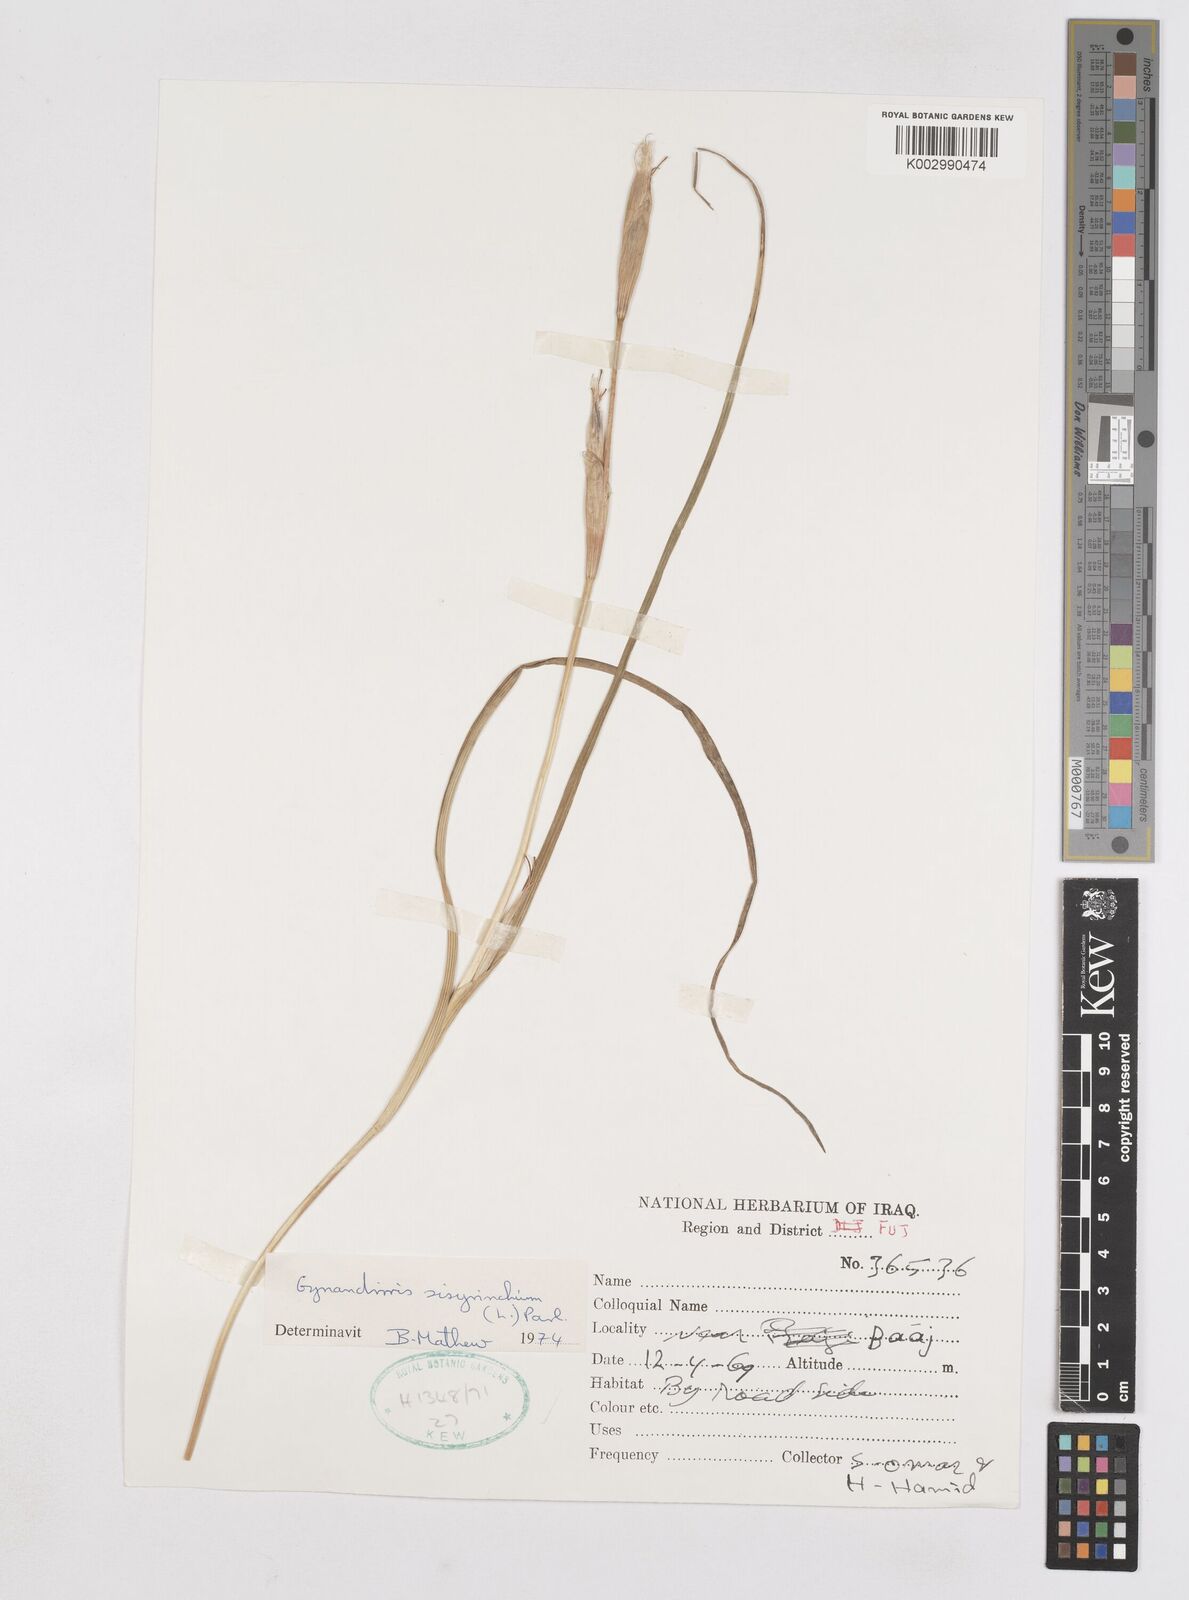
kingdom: Plantae
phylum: Tracheophyta
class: Liliopsida
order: Asparagales
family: Iridaceae
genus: Moraea
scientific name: Moraea sisyrinchium
